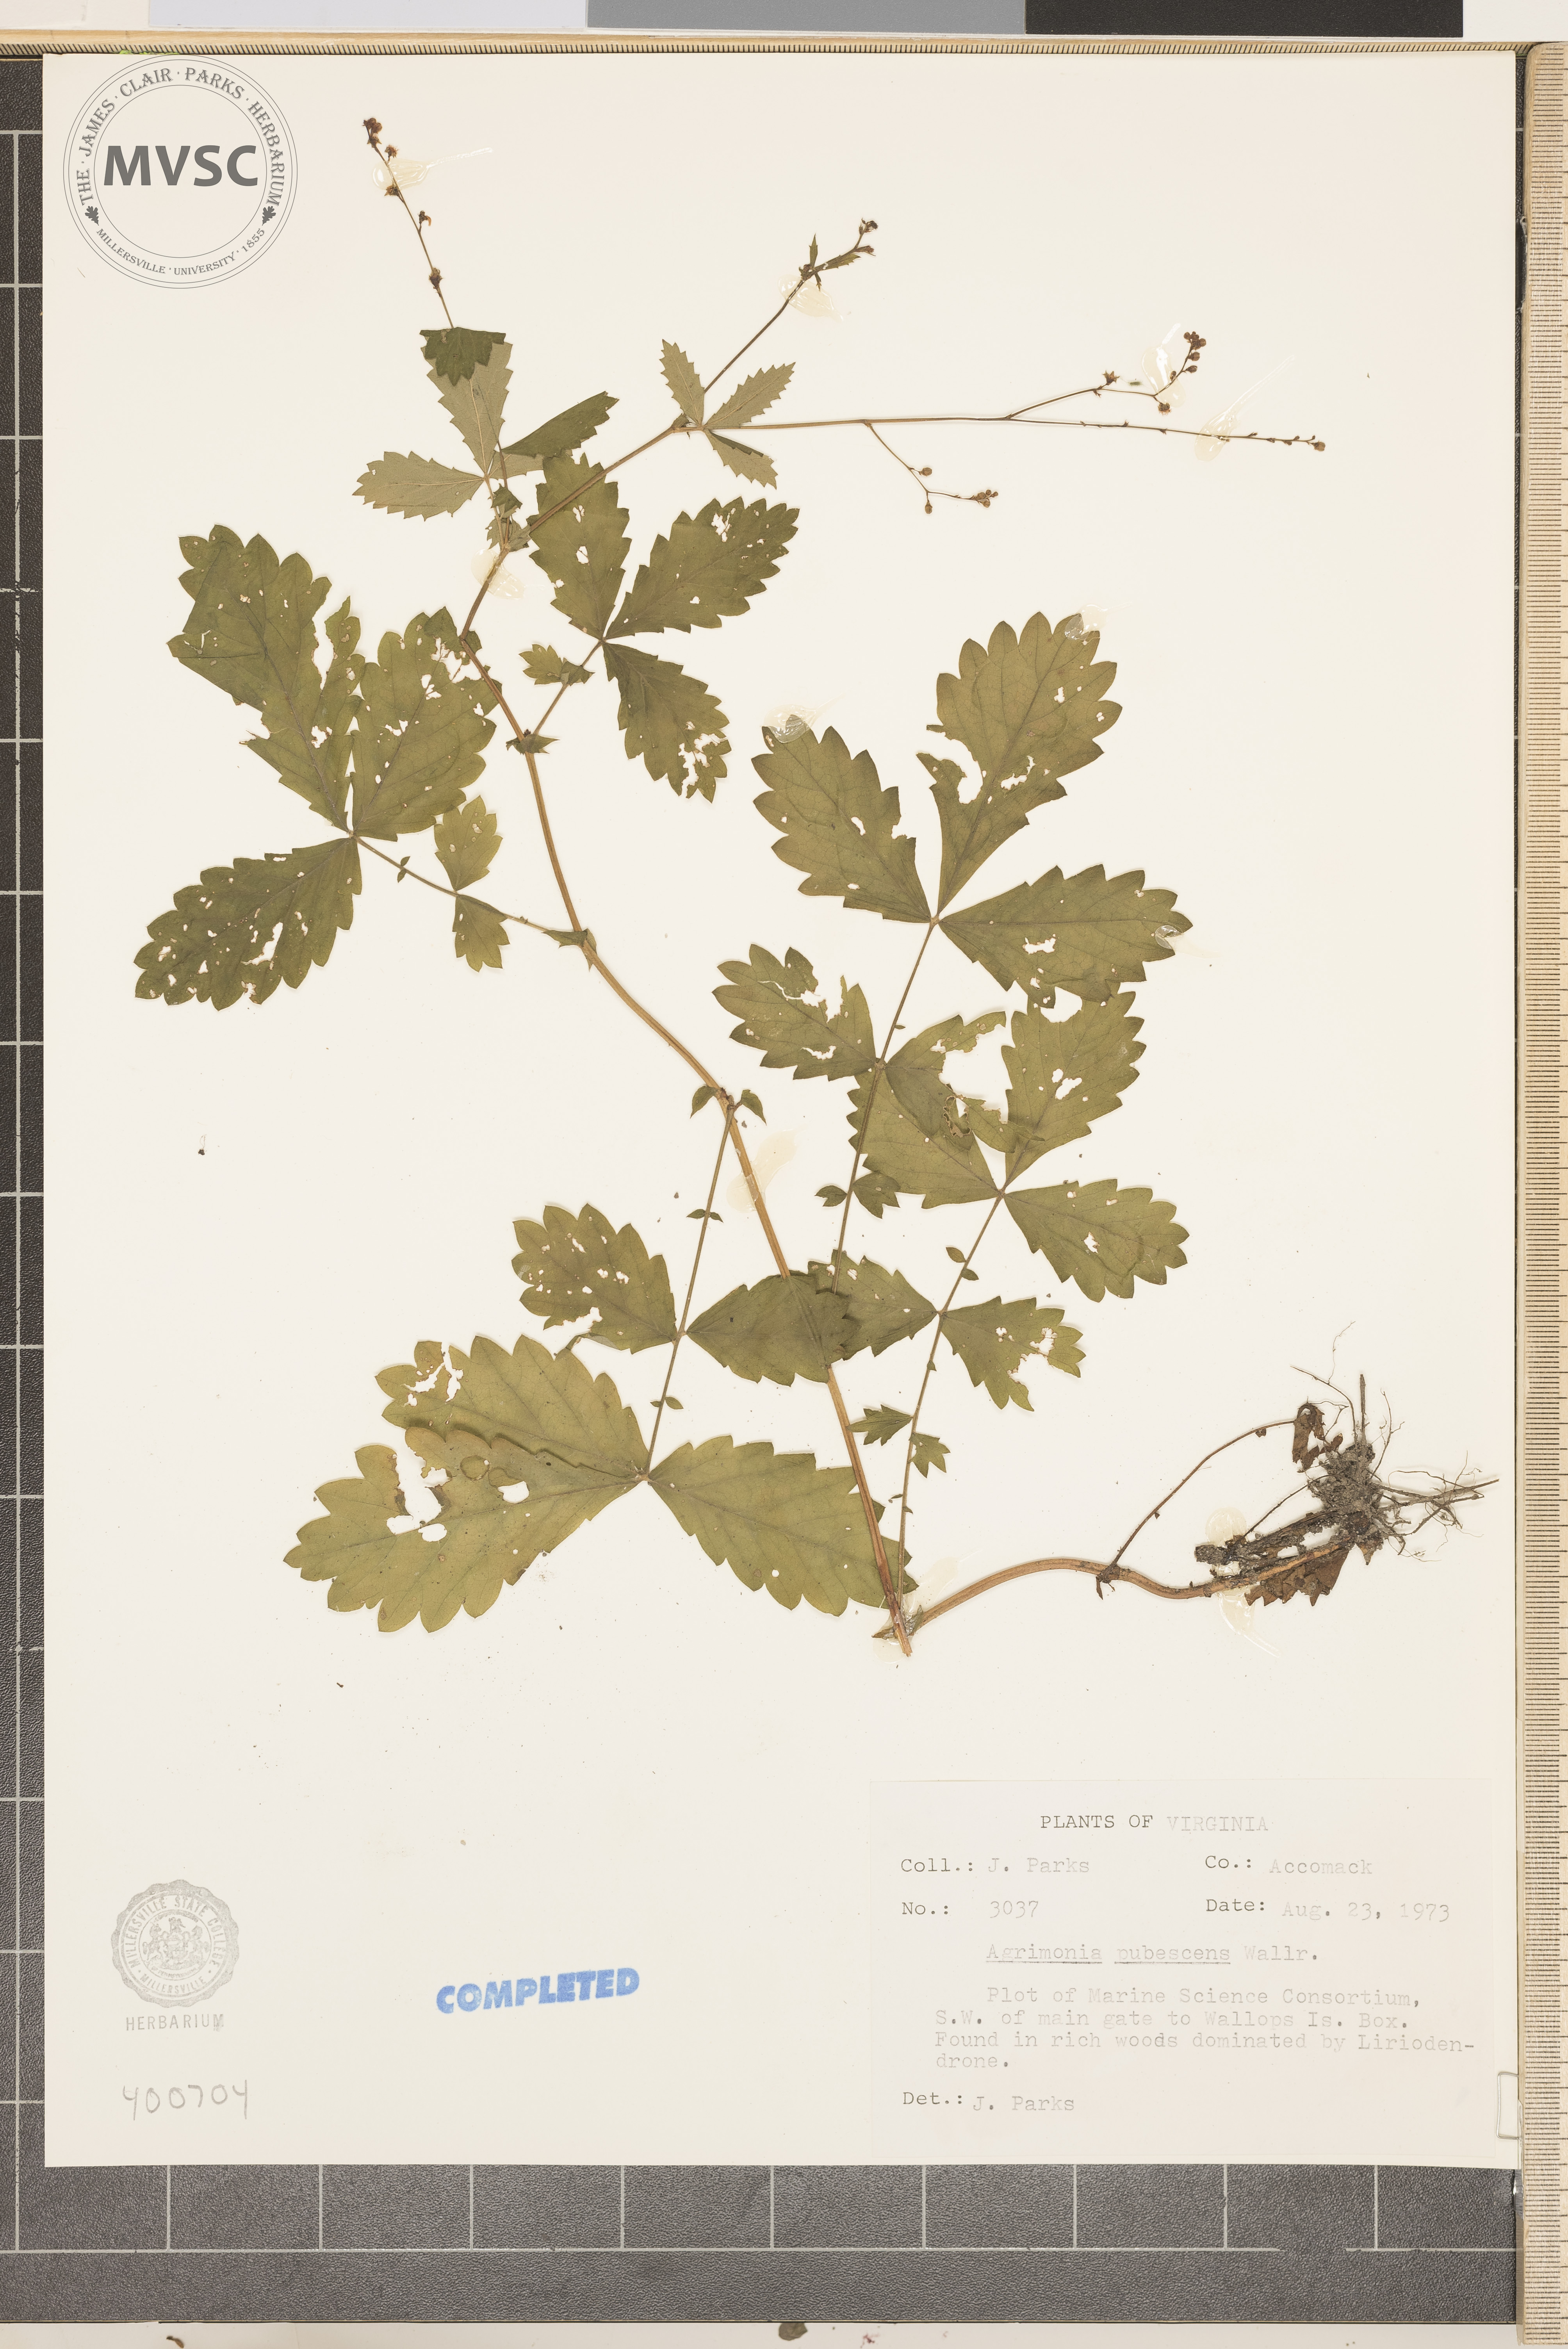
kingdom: Plantae
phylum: Tracheophyta
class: Magnoliopsida
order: Rosales
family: Rosaceae
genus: Agrimonia
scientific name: Agrimonia pubescens
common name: agrimony
